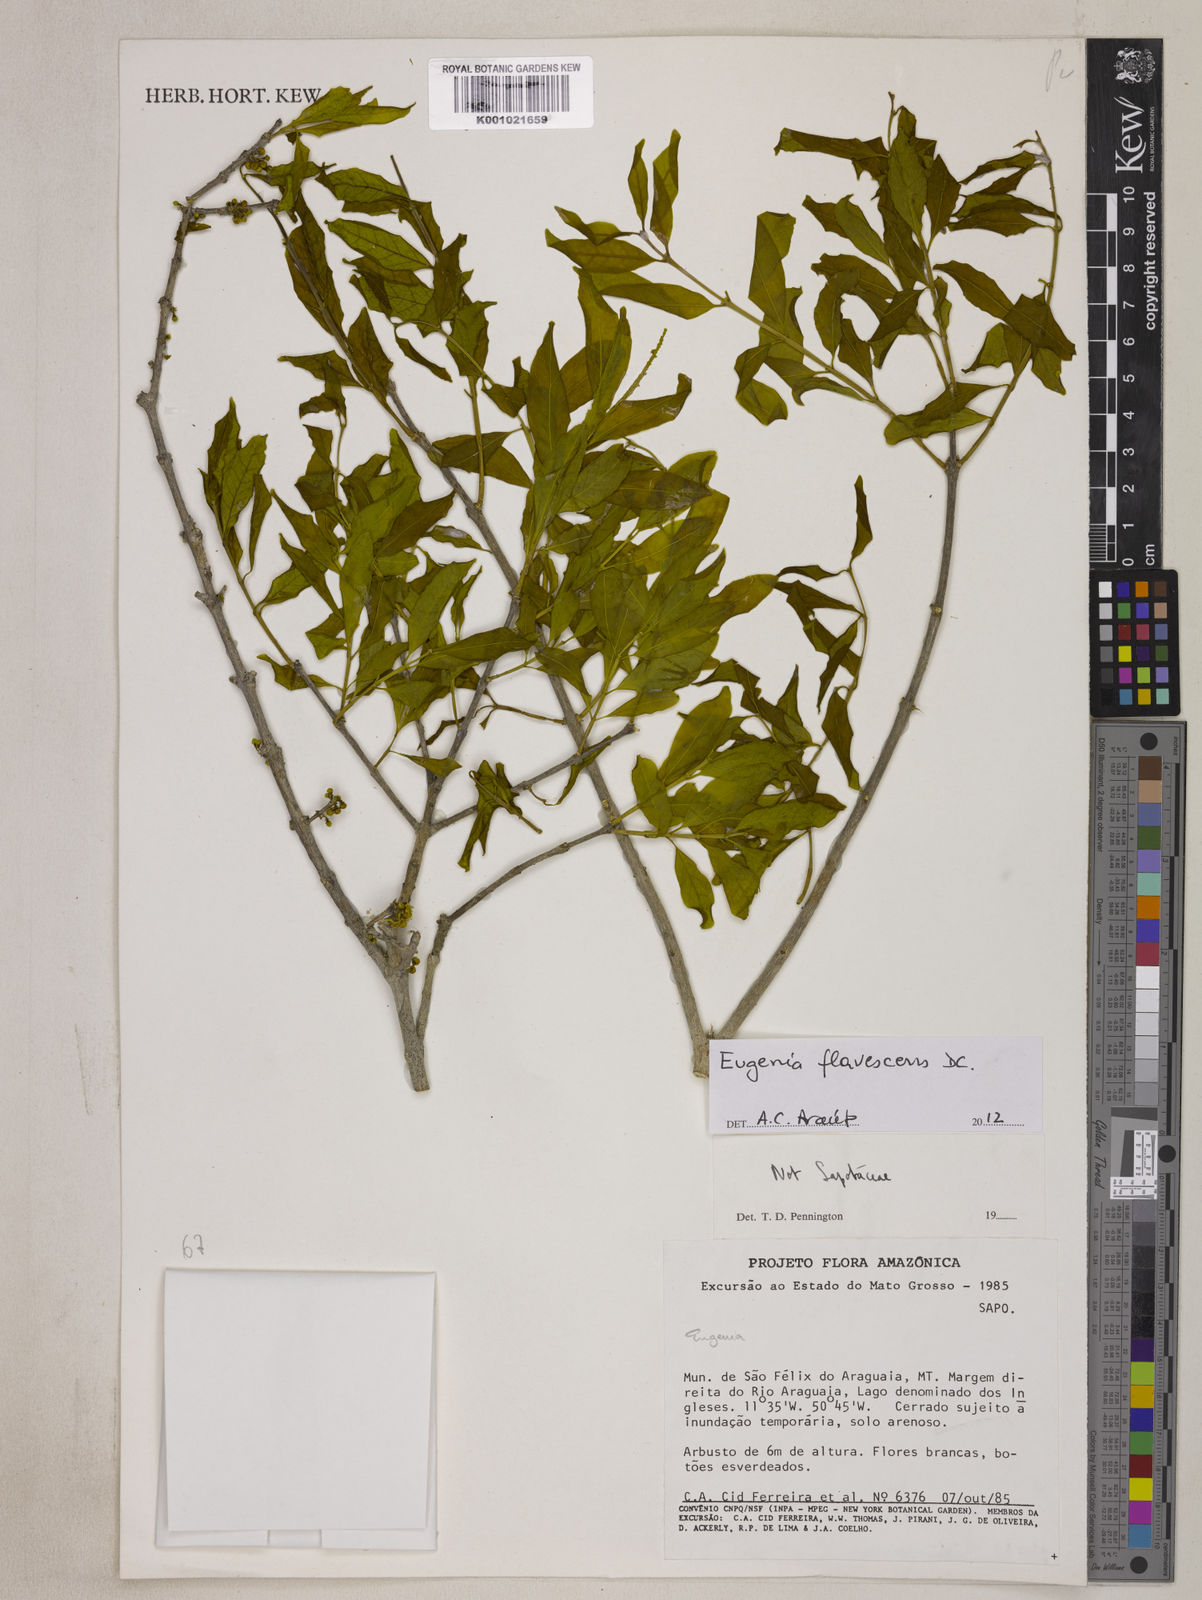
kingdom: Plantae
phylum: Tracheophyta
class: Magnoliopsida
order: Myrtales
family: Myrtaceae
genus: Eugenia
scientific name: Eugenia flavescens
